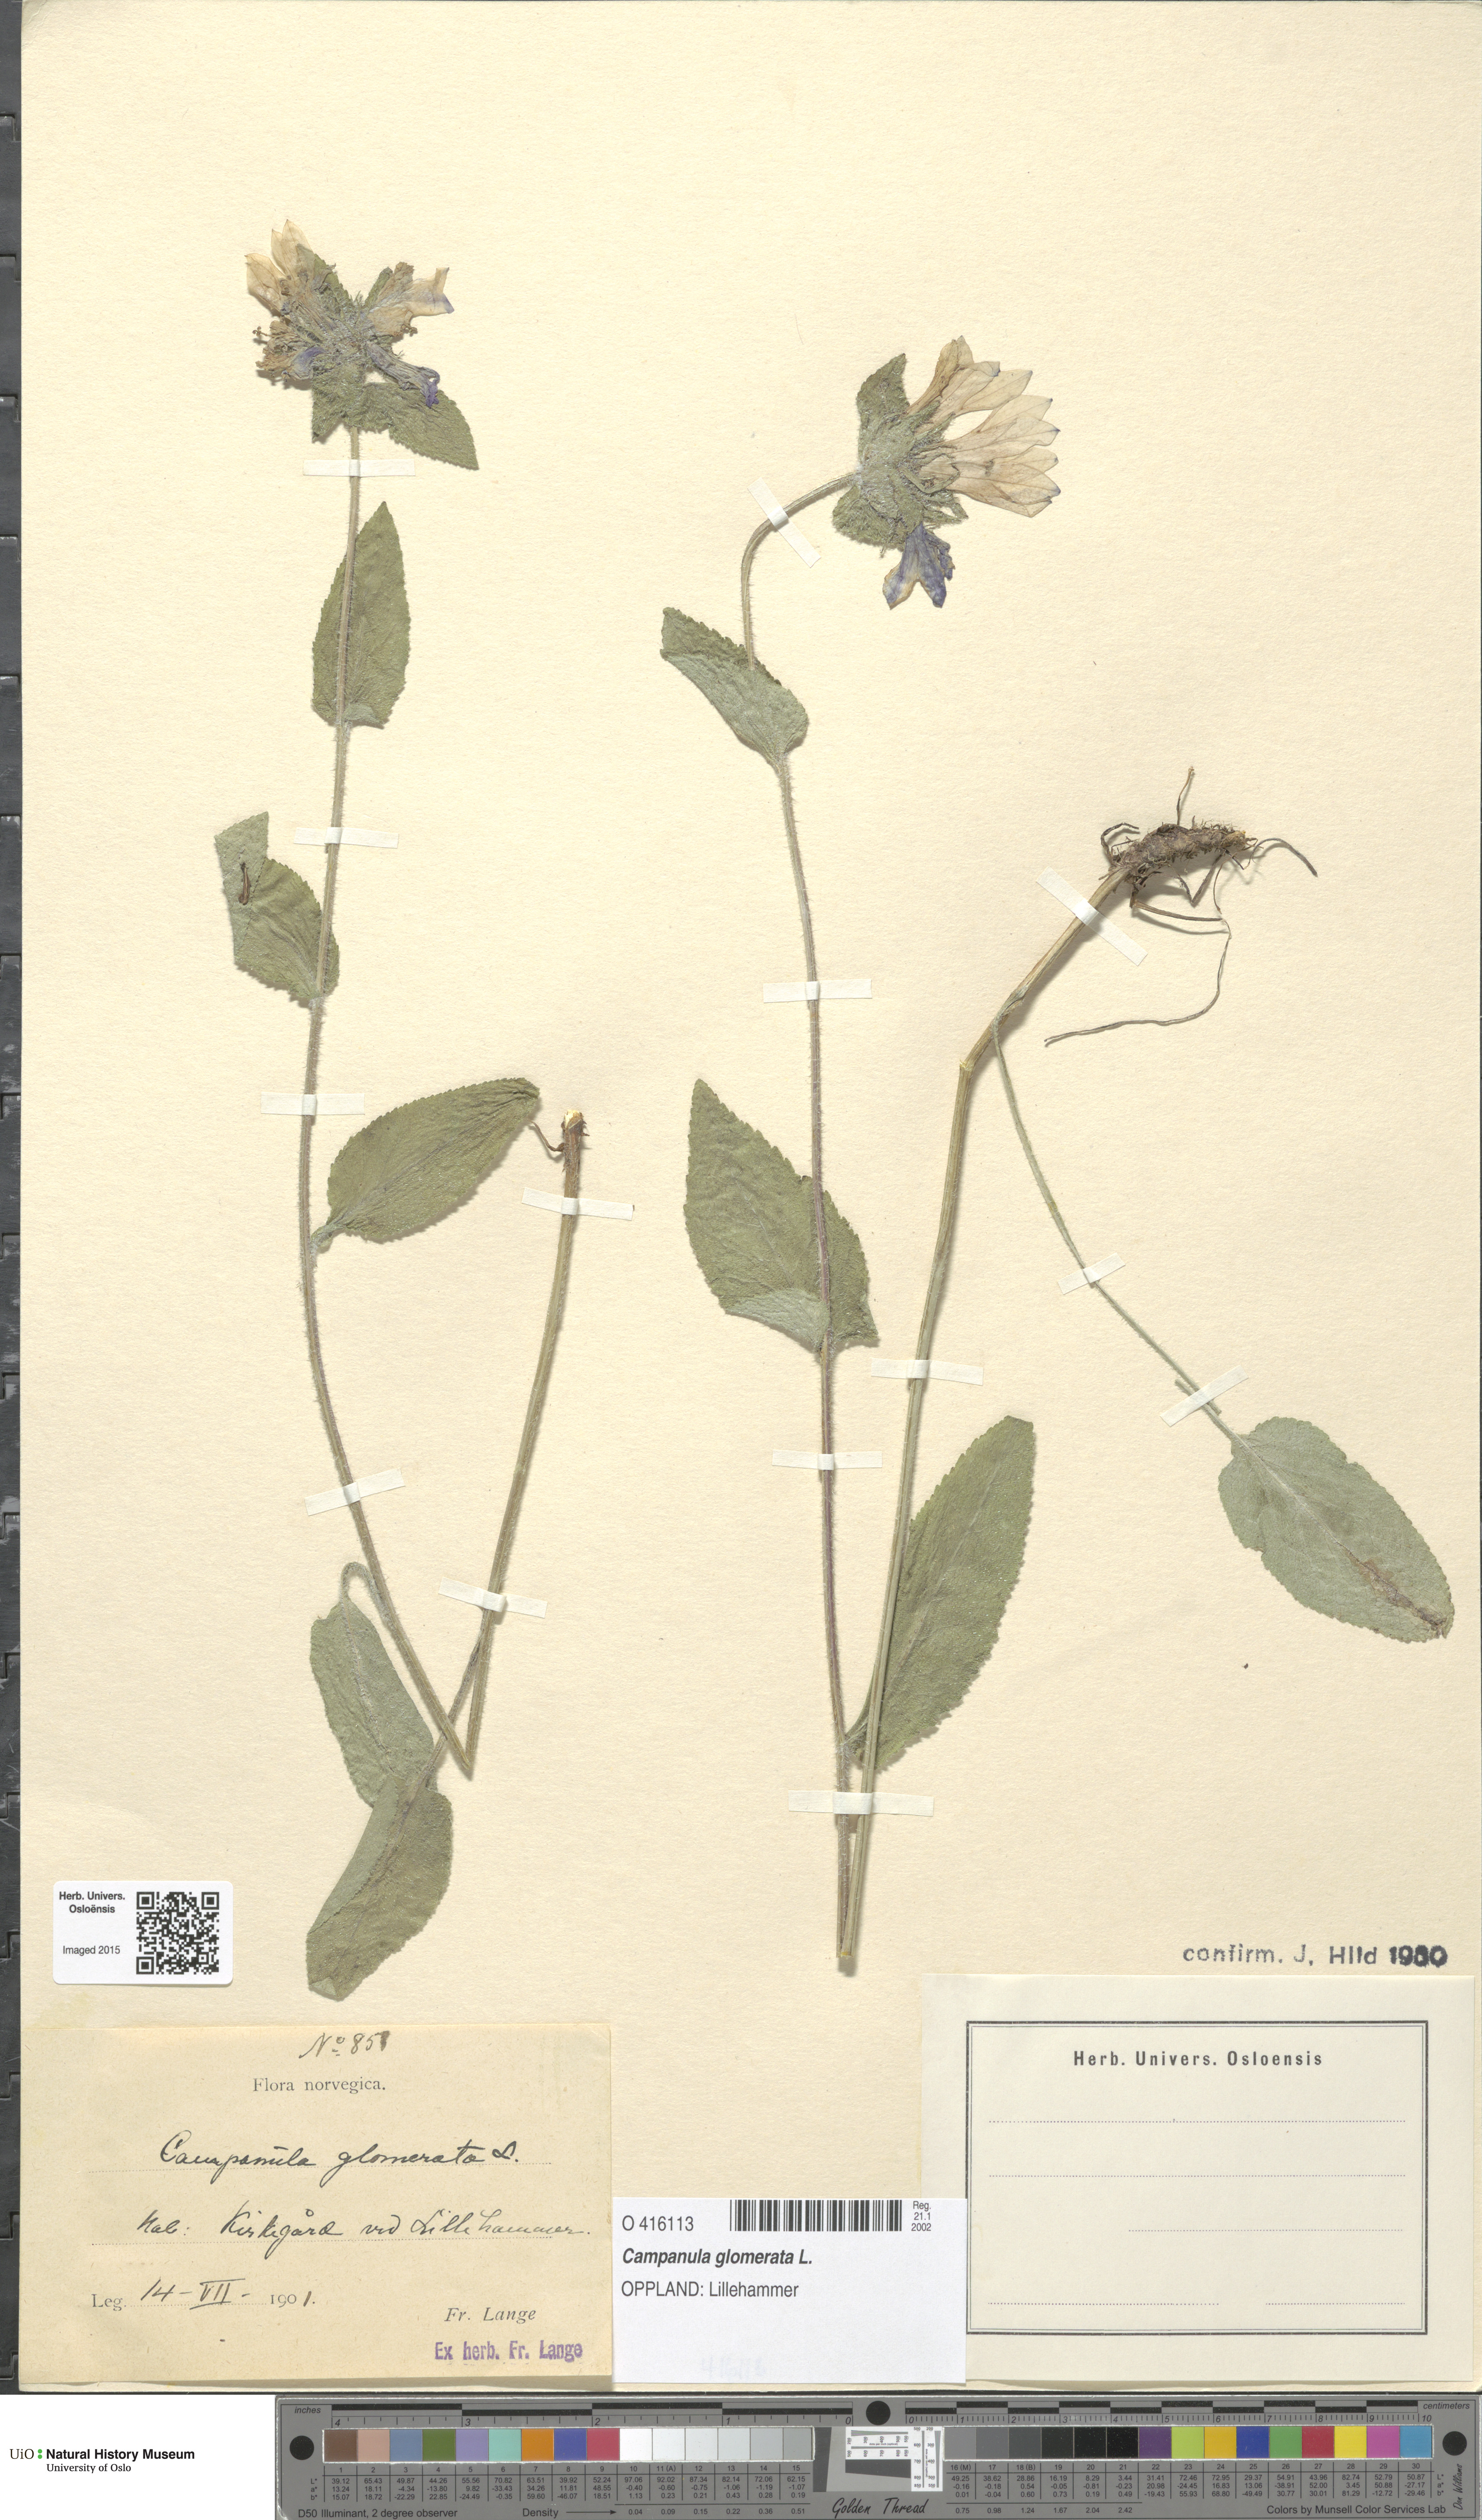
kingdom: Plantae
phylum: Tracheophyta
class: Magnoliopsida
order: Asterales
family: Campanulaceae
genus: Campanula
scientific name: Campanula glomerata
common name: Clustered bellflower
